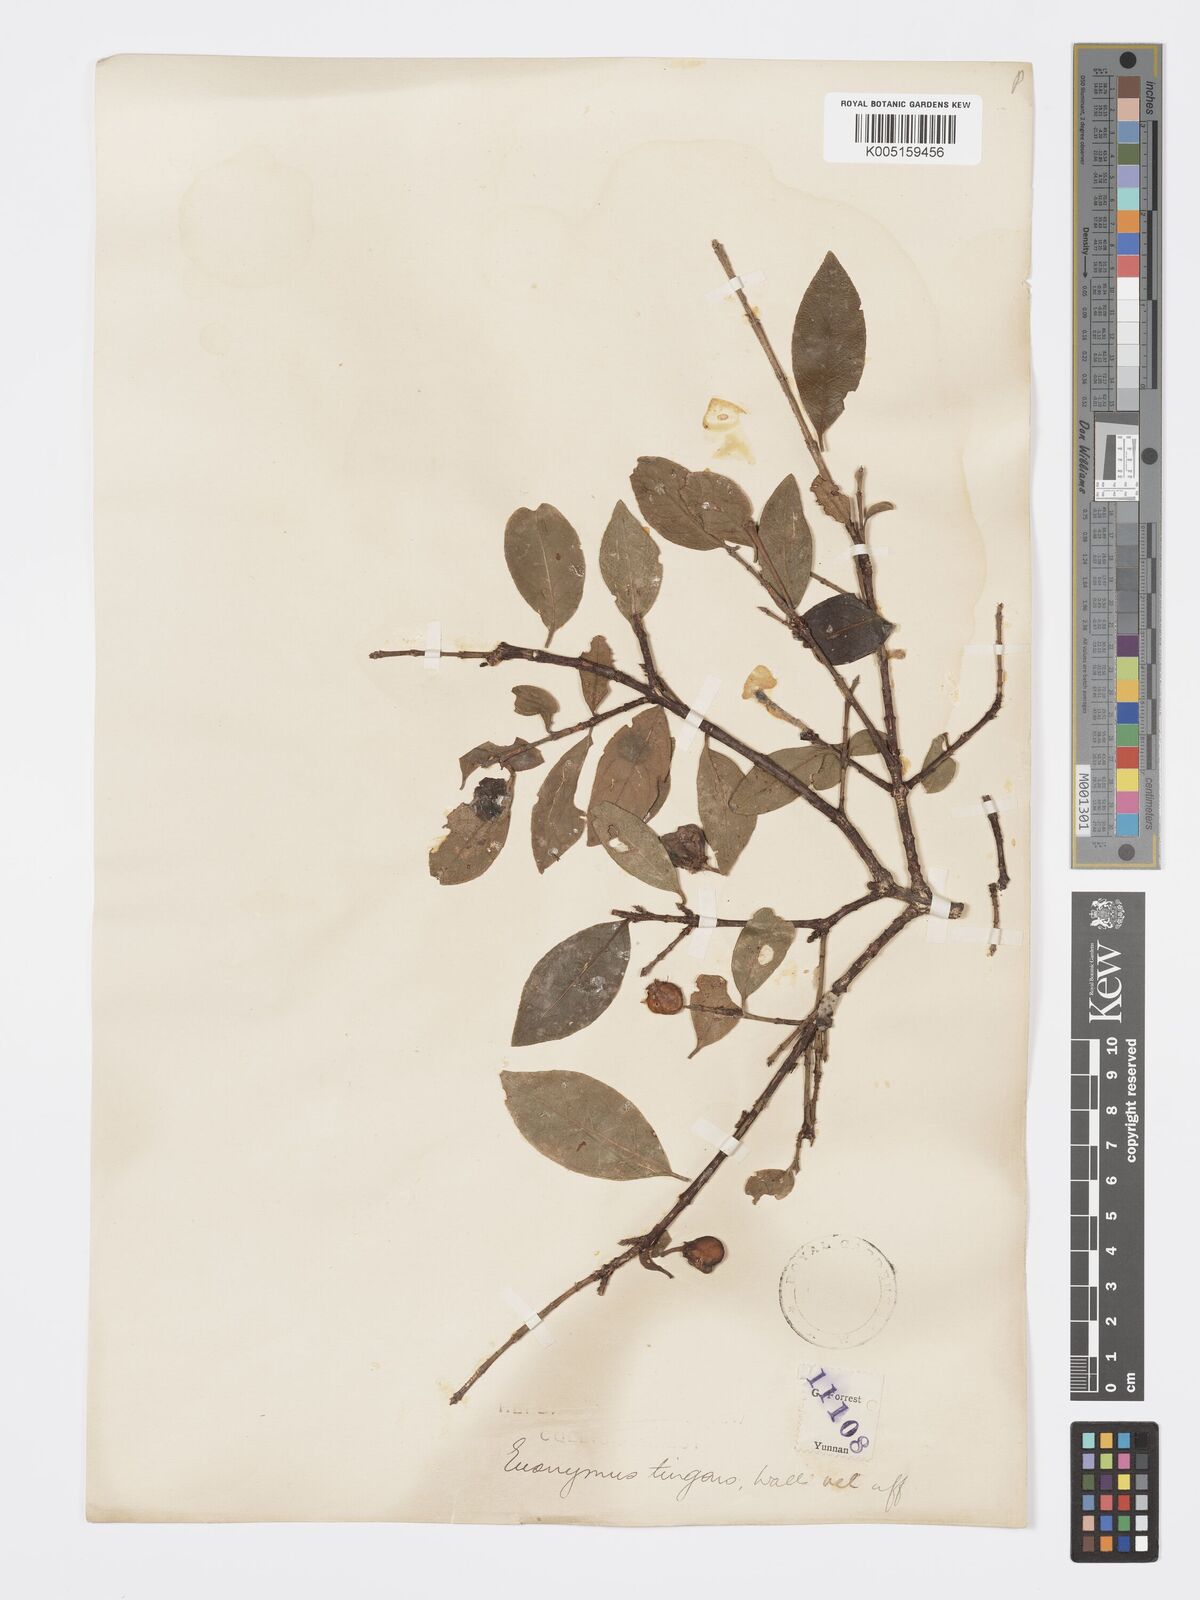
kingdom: Plantae
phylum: Tracheophyta
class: Magnoliopsida
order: Celastrales
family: Celastraceae
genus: Euonymus
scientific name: Euonymus tingens
